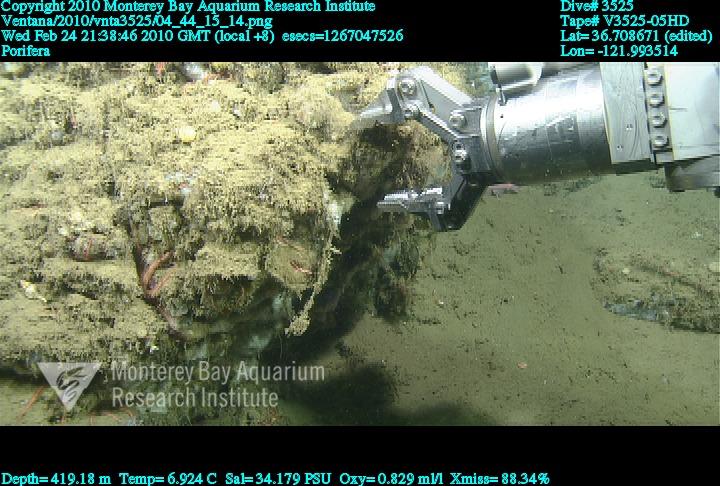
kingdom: Animalia
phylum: Porifera
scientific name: Porifera
